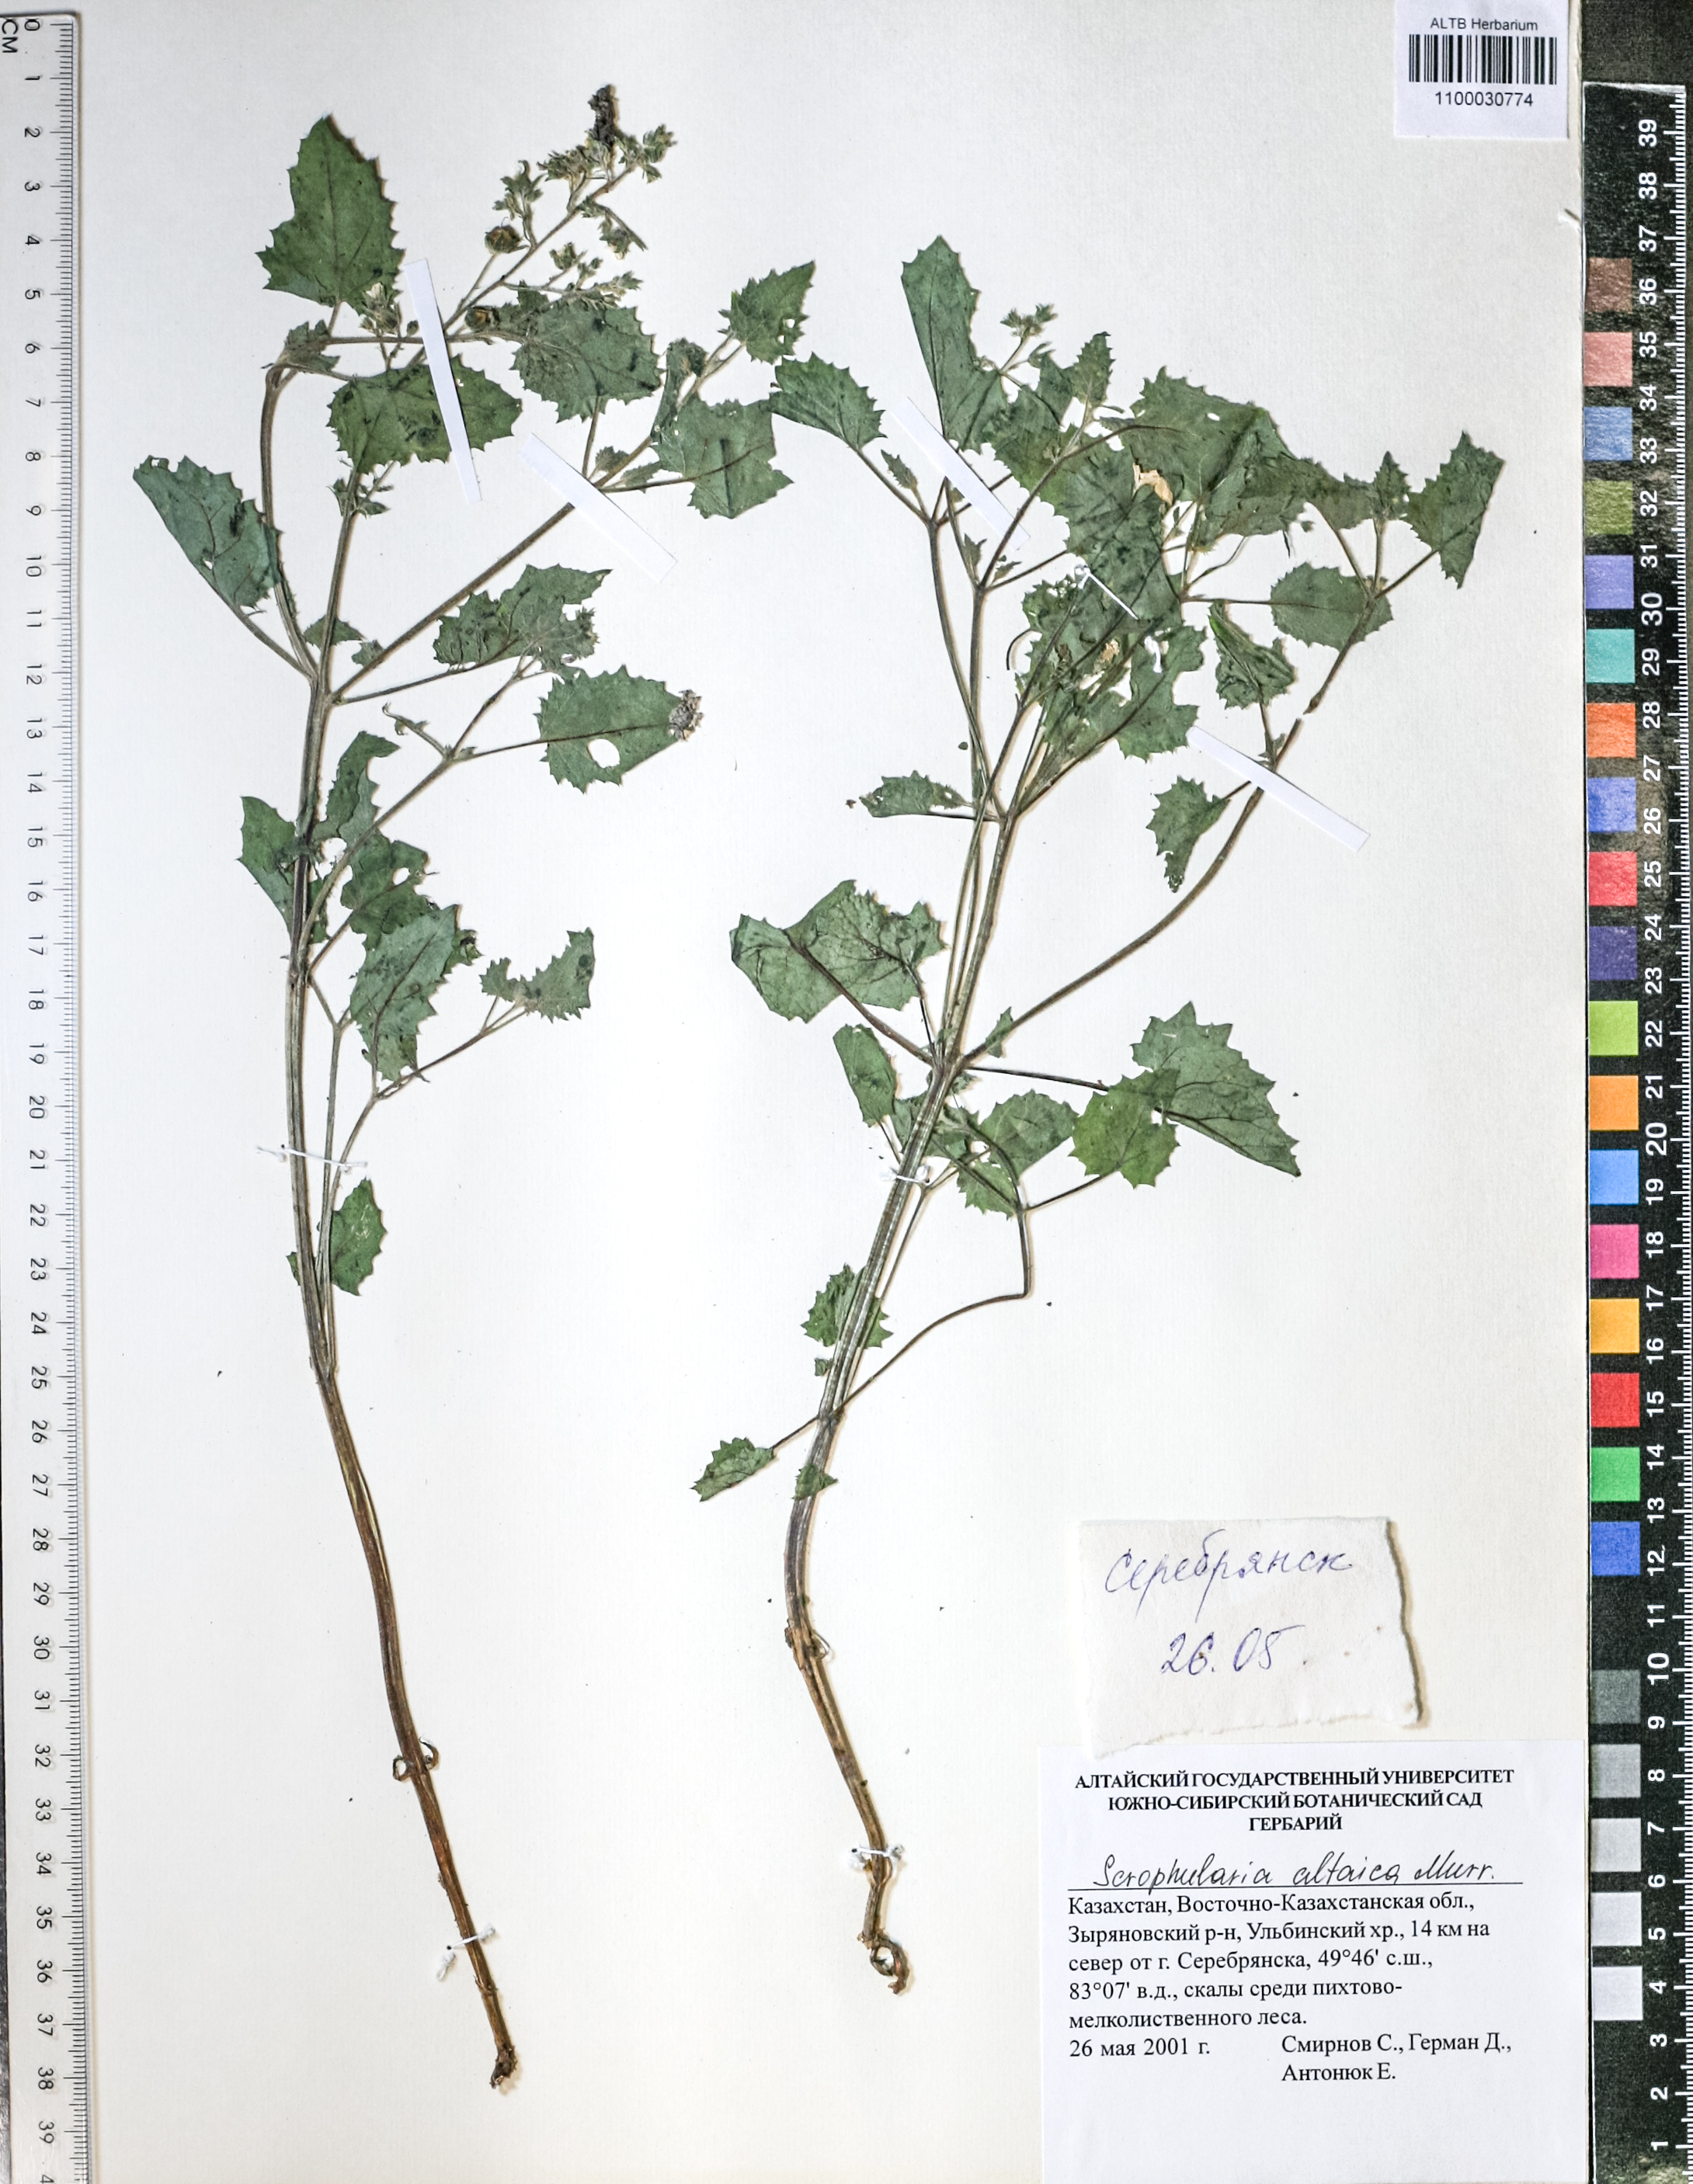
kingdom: Plantae
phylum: Tracheophyta
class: Magnoliopsida
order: Lamiales
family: Scrophulariaceae
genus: Scrophularia
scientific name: Scrophularia altaica
